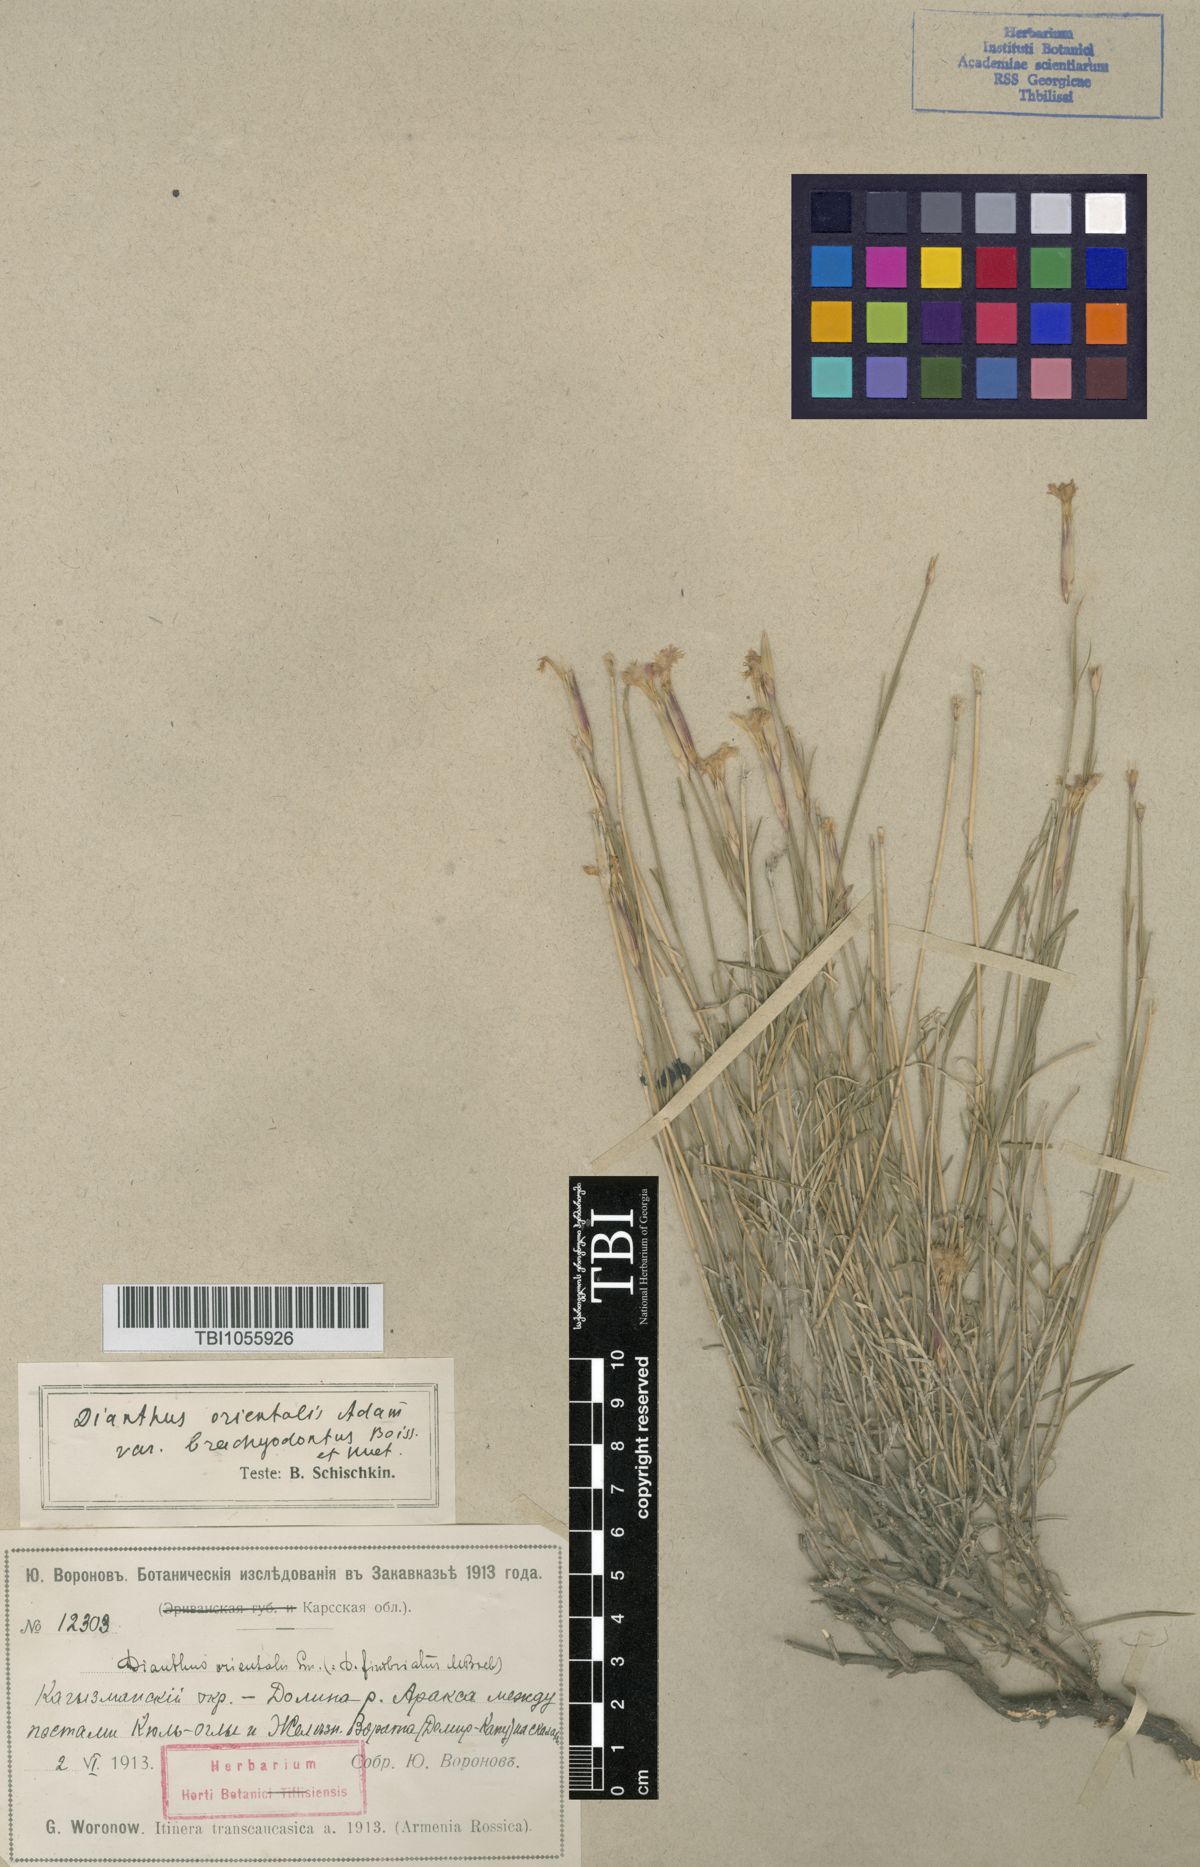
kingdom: Plantae
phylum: Tracheophyta
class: Magnoliopsida
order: Caryophyllales
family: Caryophyllaceae
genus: Dianthus
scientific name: Dianthus orientalis
